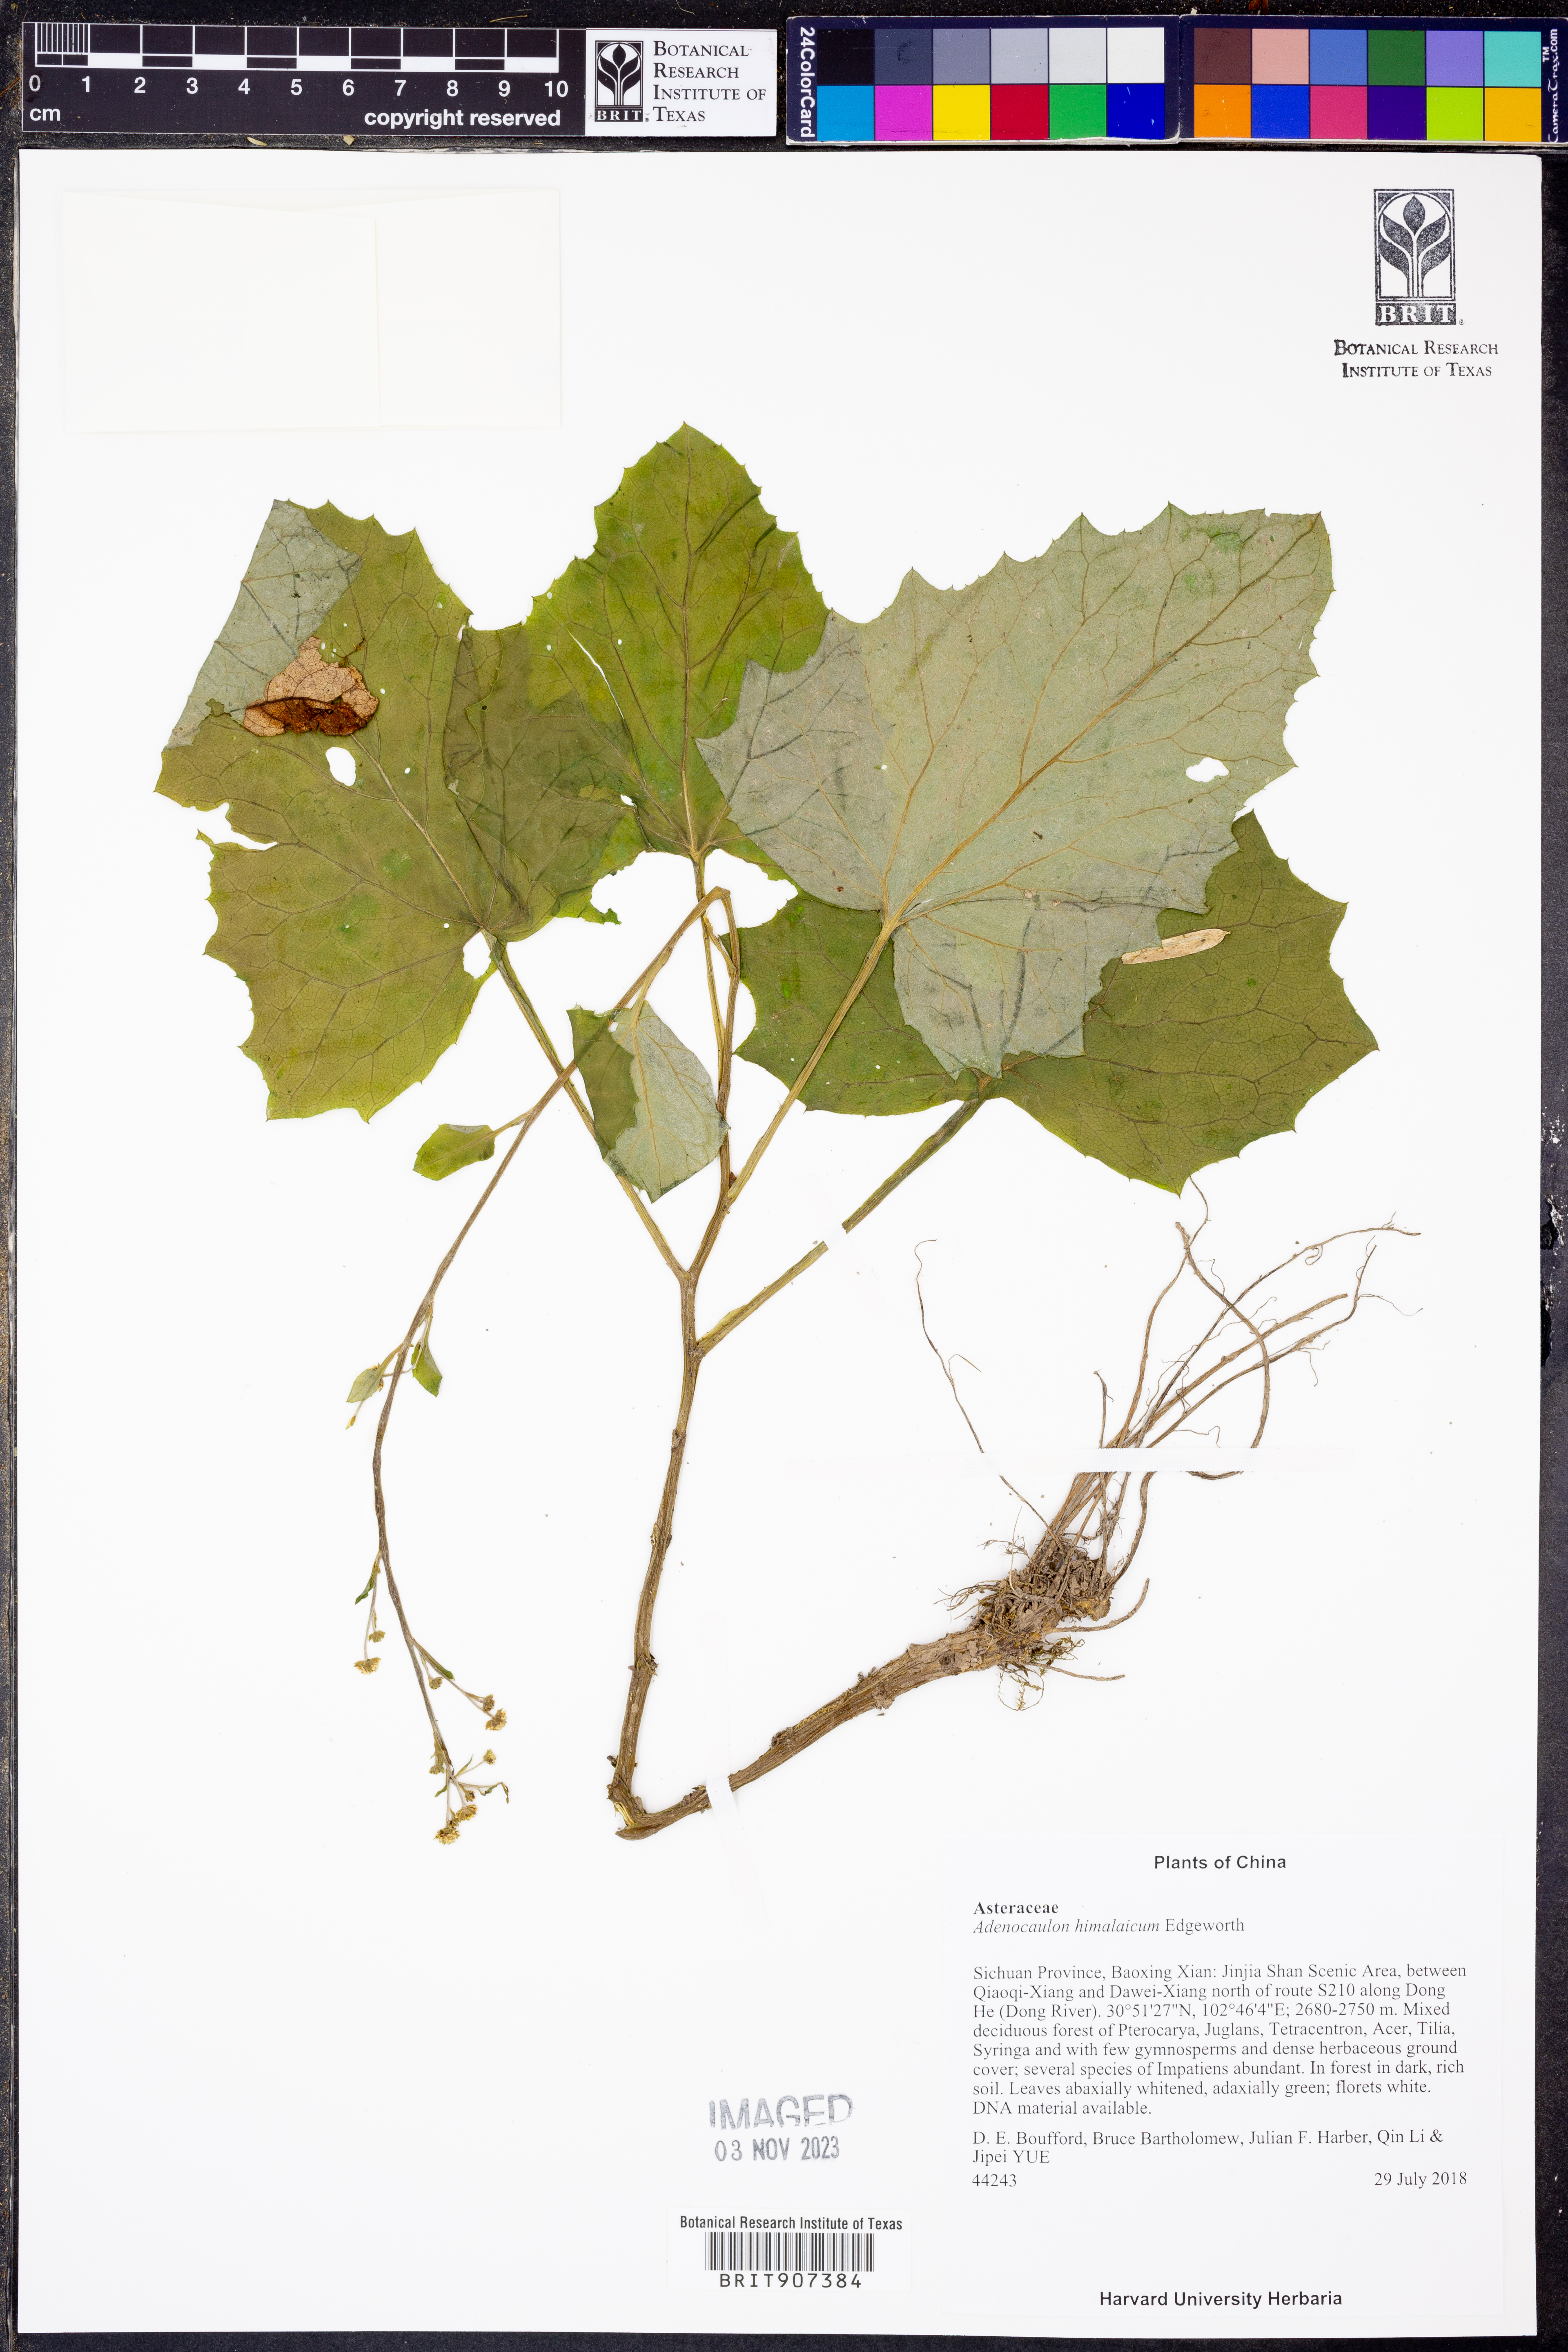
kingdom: Plantae
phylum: Tracheophyta
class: Magnoliopsida
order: Asterales
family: Asteraceae
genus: Adenocaulon
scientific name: Adenocaulon himalaicum
